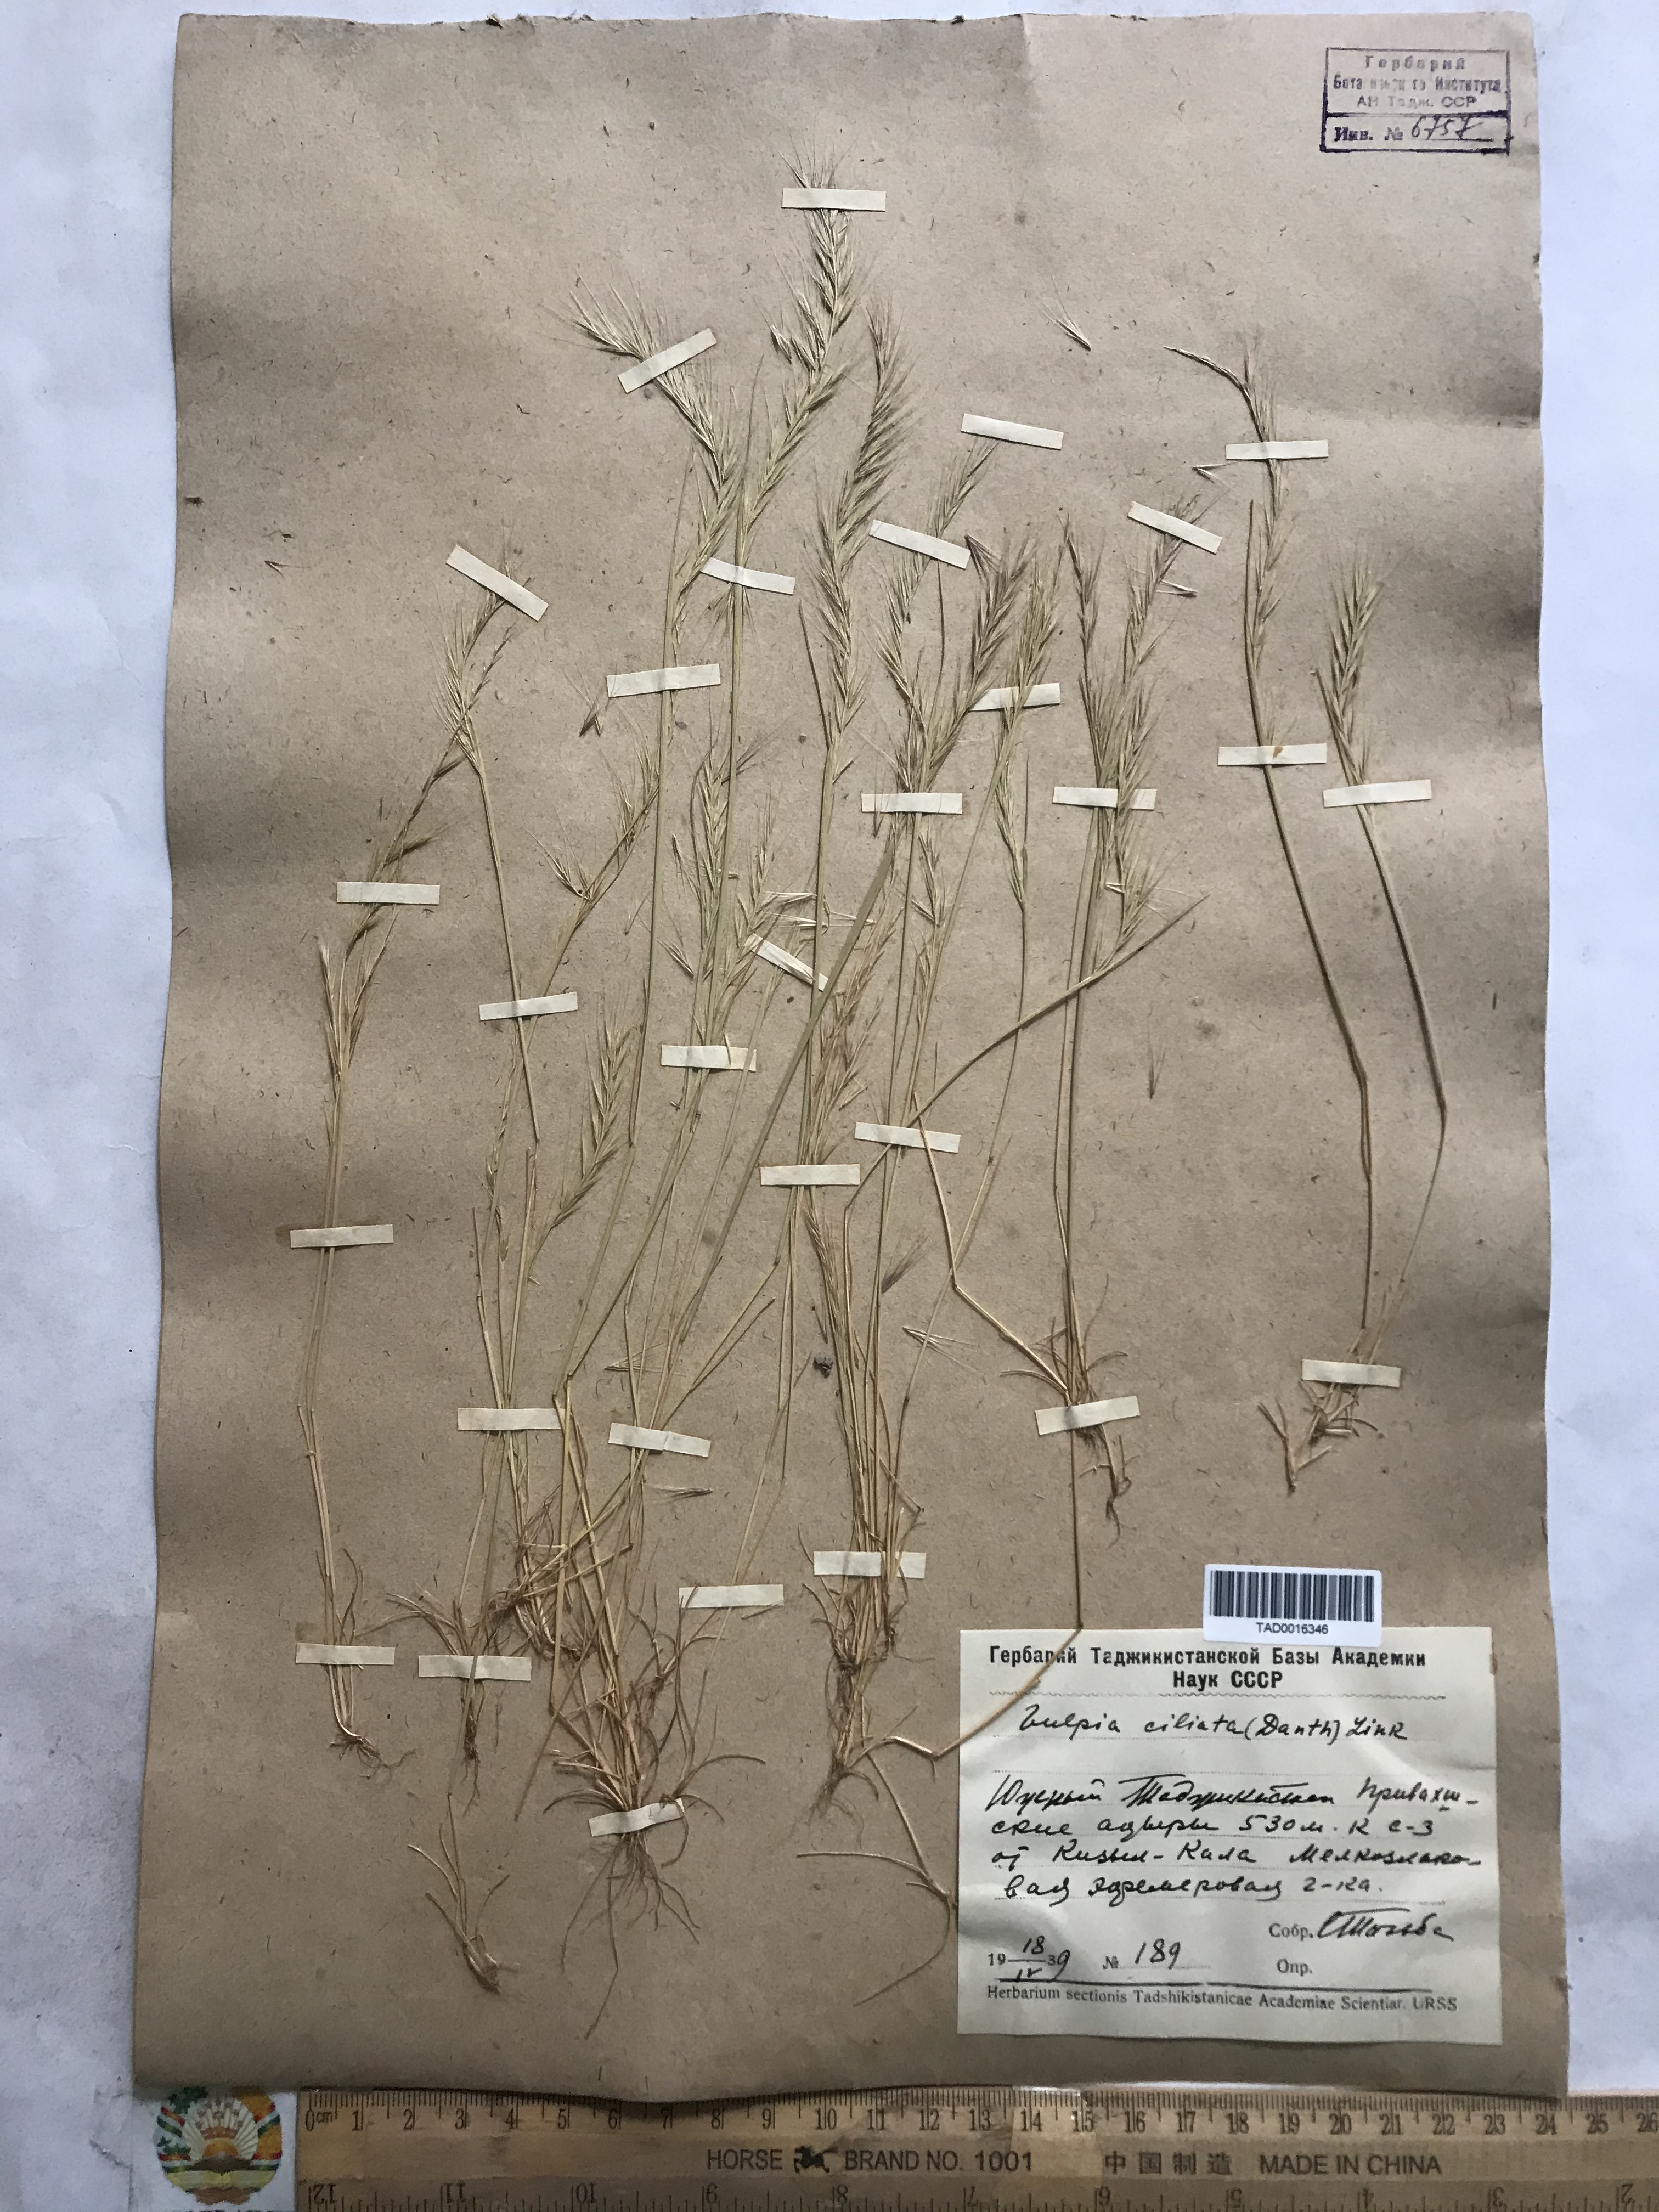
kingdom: Plantae
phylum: Tracheophyta
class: Liliopsida
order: Poales
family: Poaceae
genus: Festuca
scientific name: Festuca ambigua
